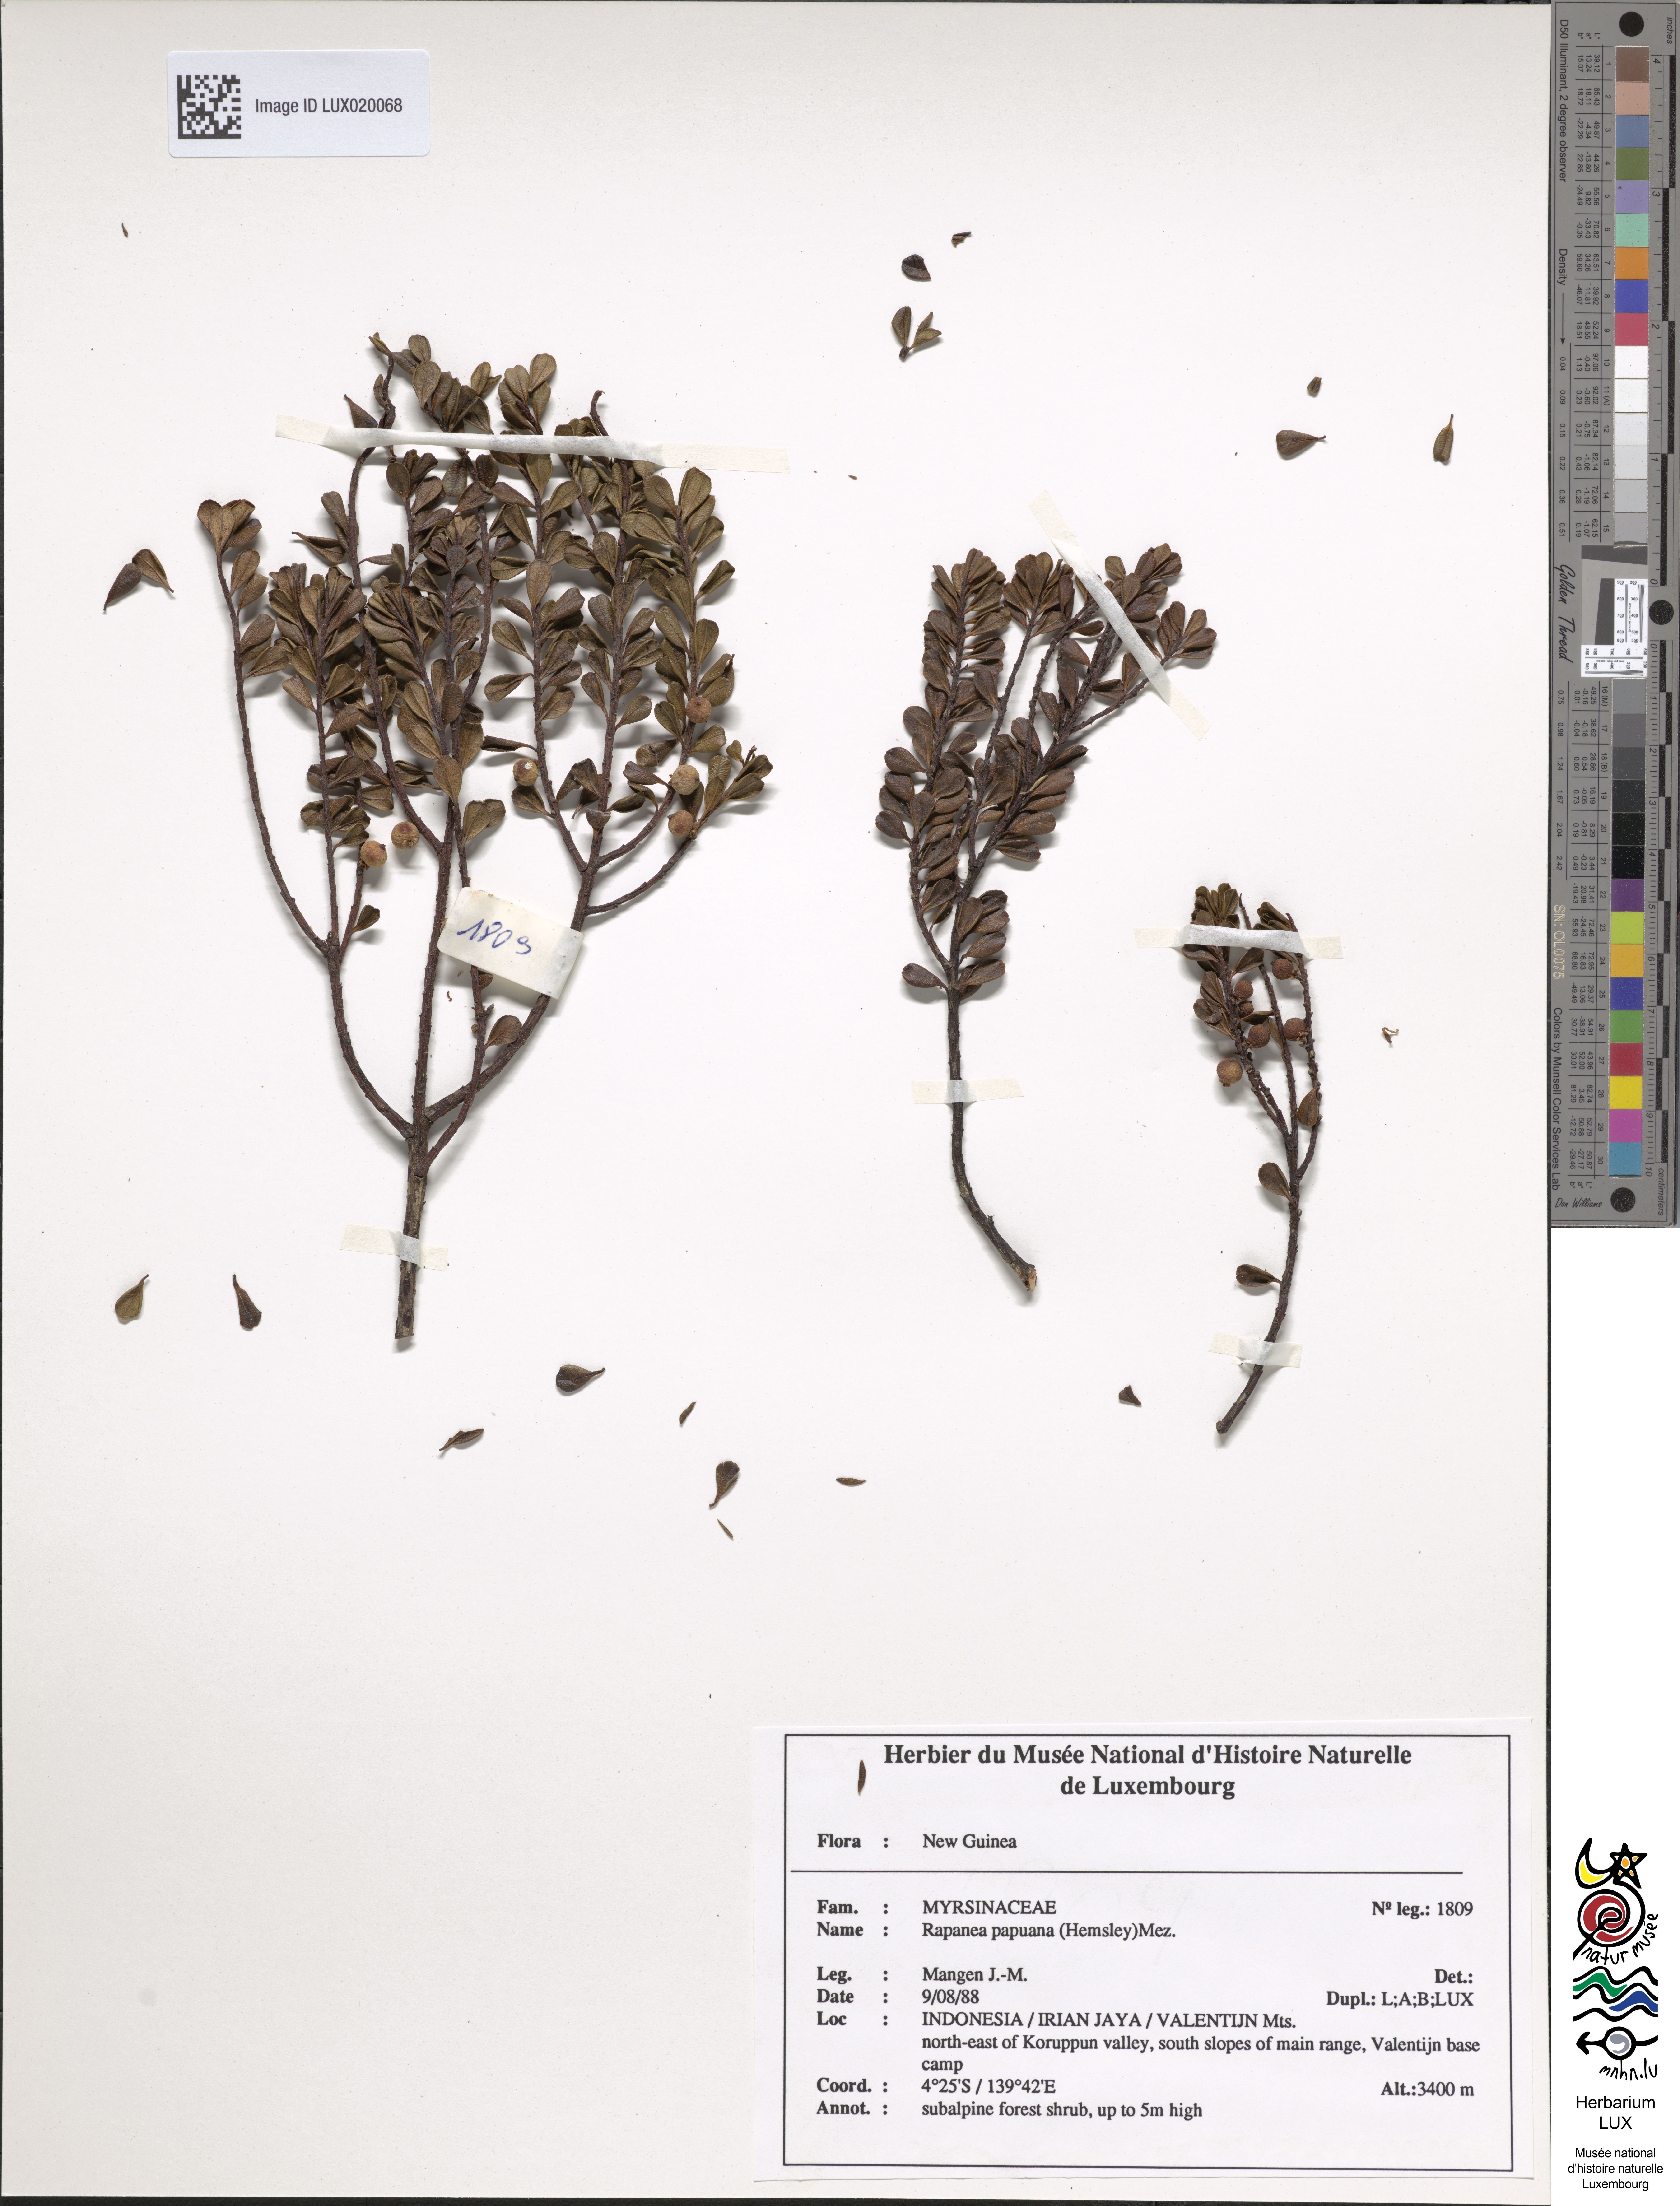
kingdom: Plantae
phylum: Tracheophyta
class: Magnoliopsida
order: Ericales
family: Primulaceae
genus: Myrsine
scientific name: Myrsine papuana
